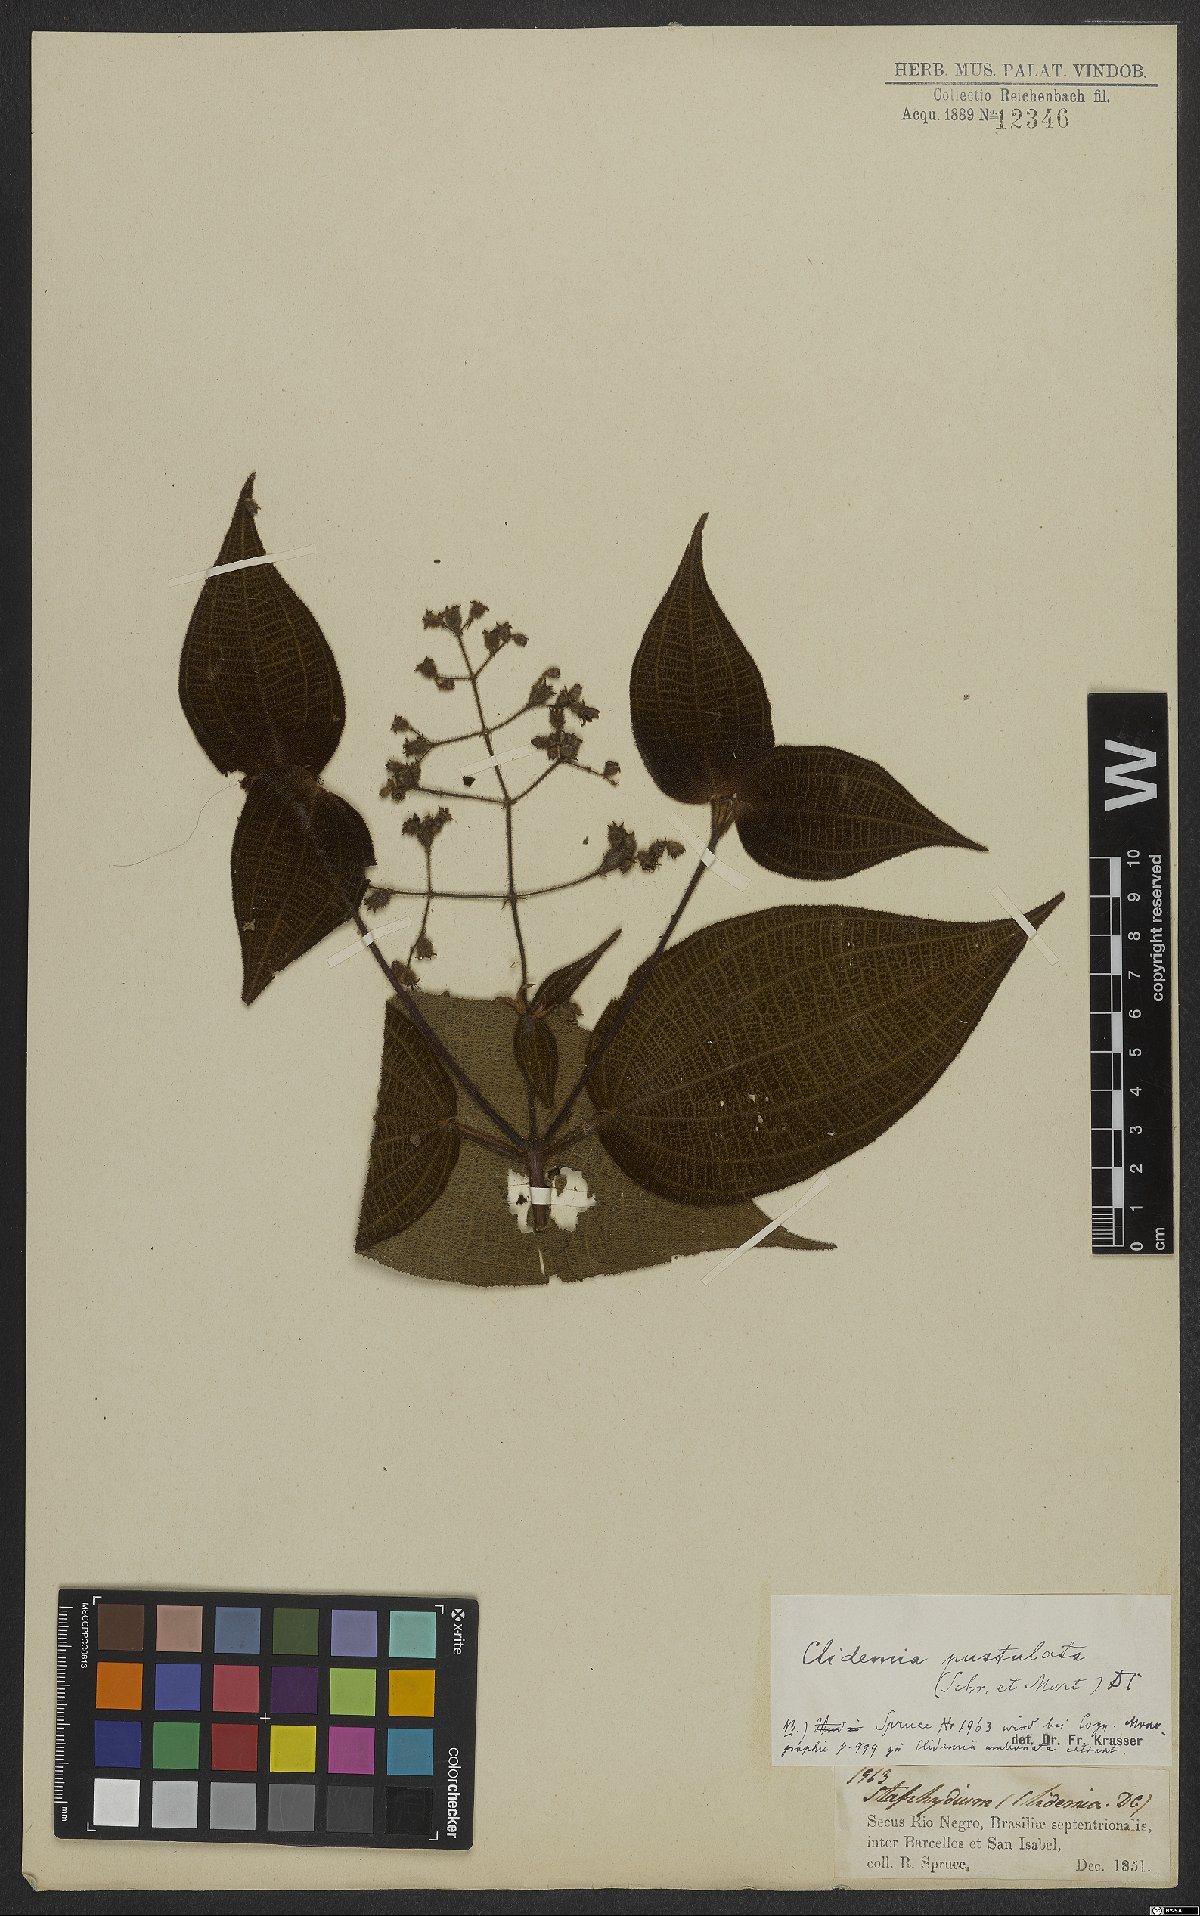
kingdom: Plantae
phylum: Tracheophyta
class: Magnoliopsida
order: Myrtales
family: Melastomataceae
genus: Miconia
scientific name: Miconia fenestrata
